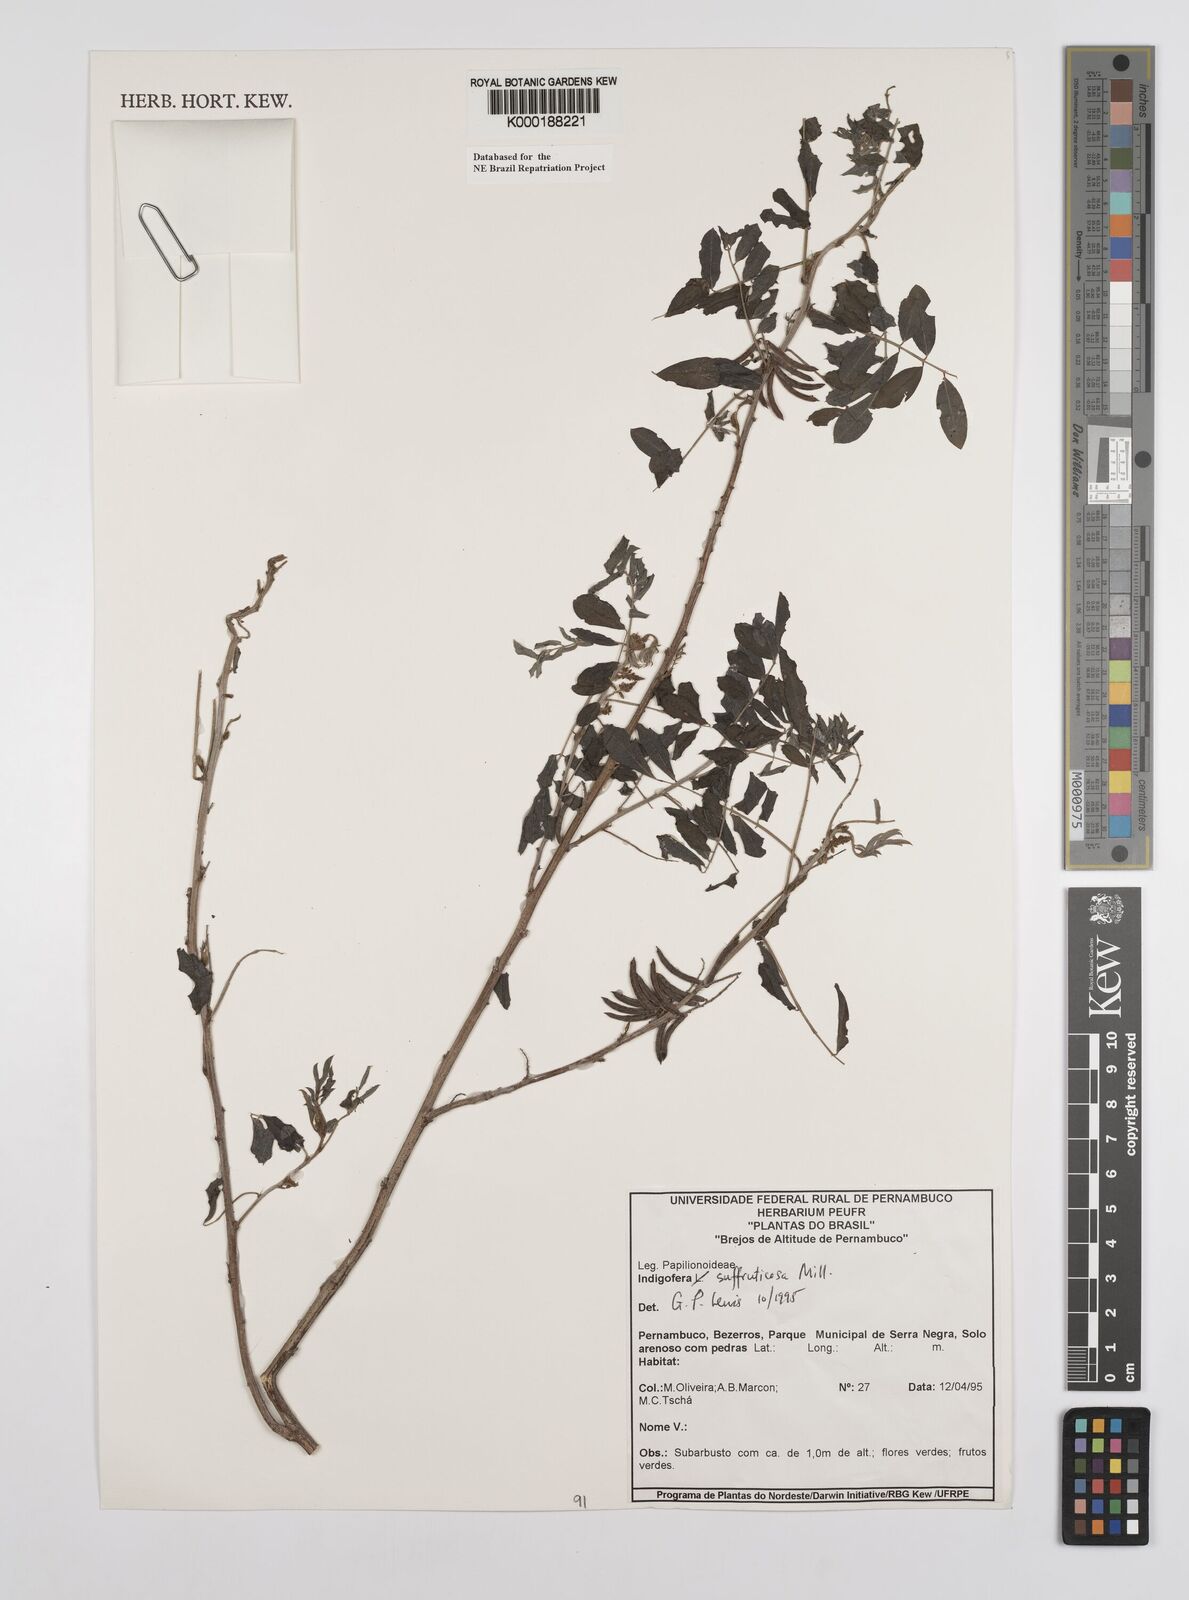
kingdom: Plantae
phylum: Tracheophyta
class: Magnoliopsida
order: Fabales
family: Fabaceae
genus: Indigofera
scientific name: Indigofera suffruticosa
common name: Anil de pasto
